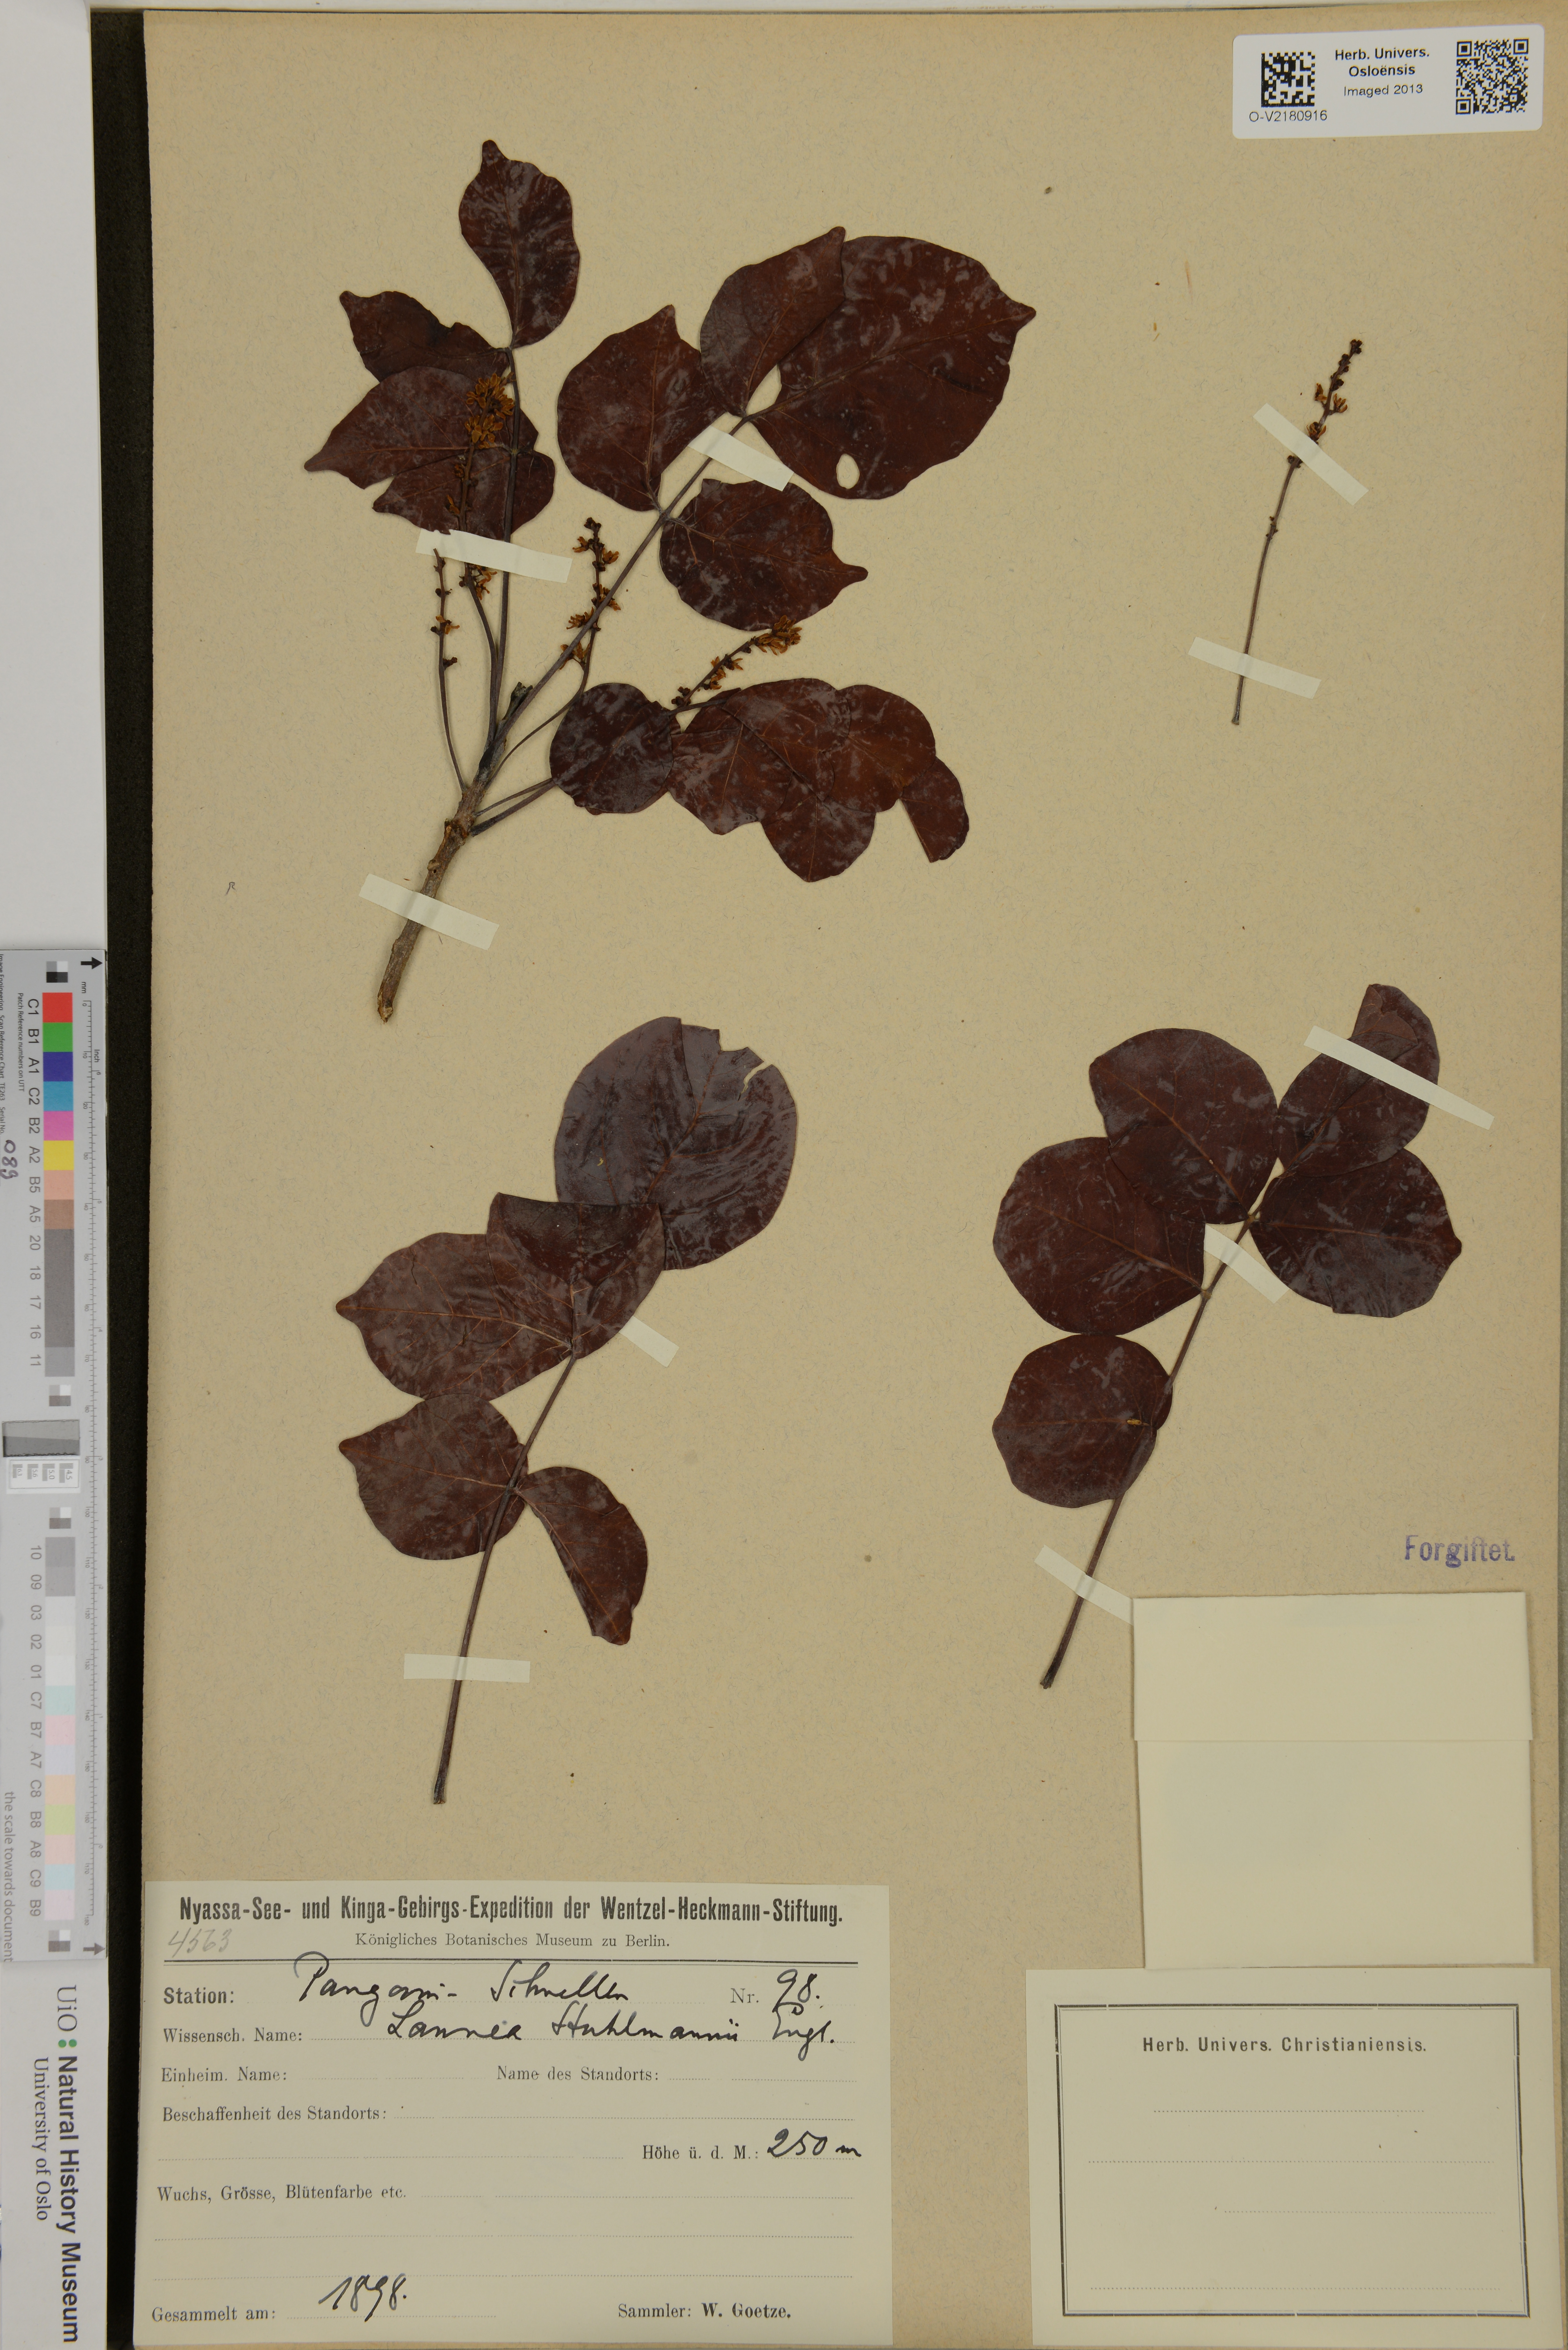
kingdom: Plantae
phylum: Tracheophyta
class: Magnoliopsida
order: Sapindales
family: Anacardiaceae
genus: Lannea
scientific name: Lannea schweinfurthii
